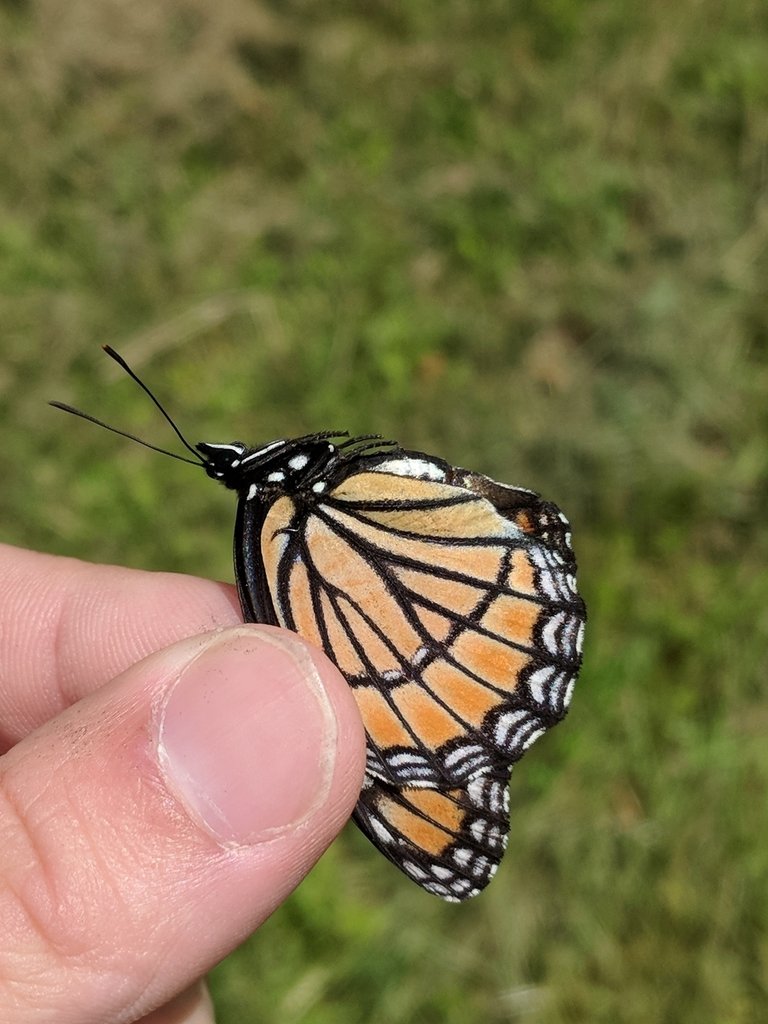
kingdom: Animalia
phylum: Arthropoda
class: Insecta
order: Lepidoptera
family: Nymphalidae
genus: Limenitis
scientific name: Limenitis archippus
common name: Viceroy
